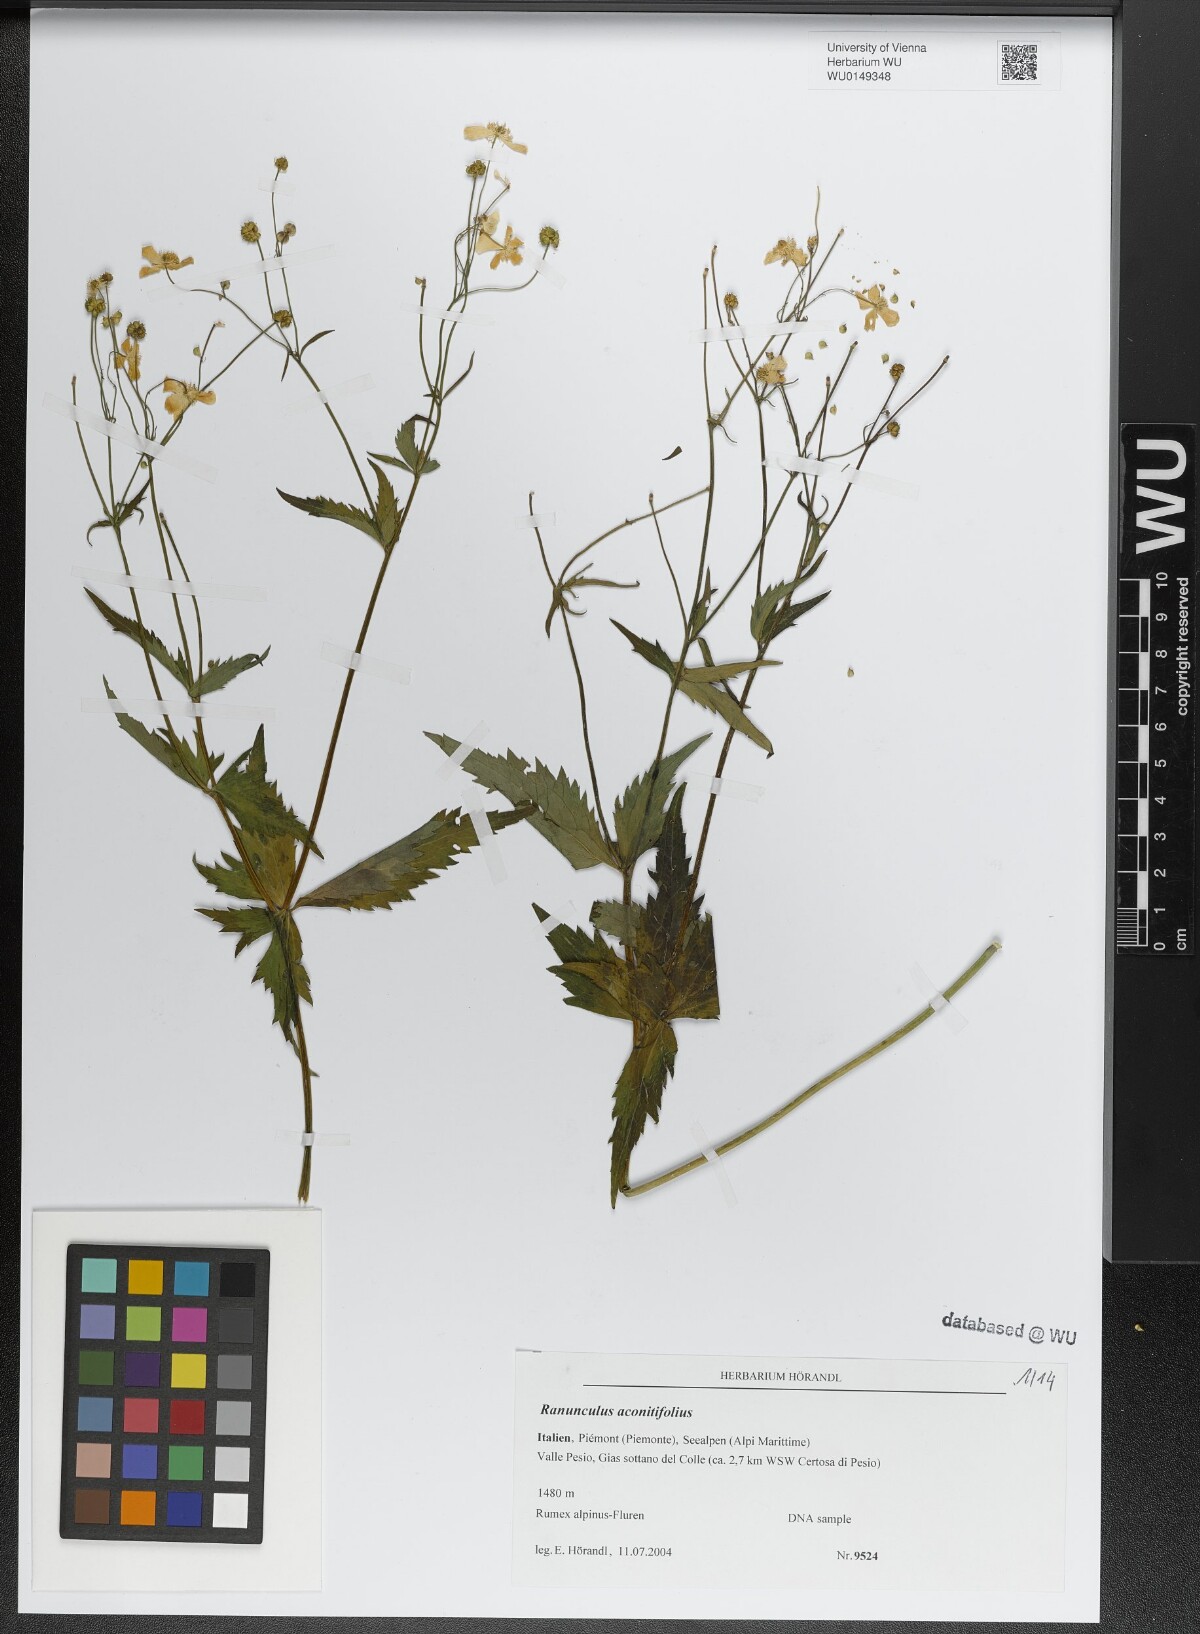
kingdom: Plantae
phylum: Tracheophyta
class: Magnoliopsida
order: Ranunculales
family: Ranunculaceae
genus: Ranunculus
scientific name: Ranunculus aconitifolius
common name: Aconite-leaved buttercup
